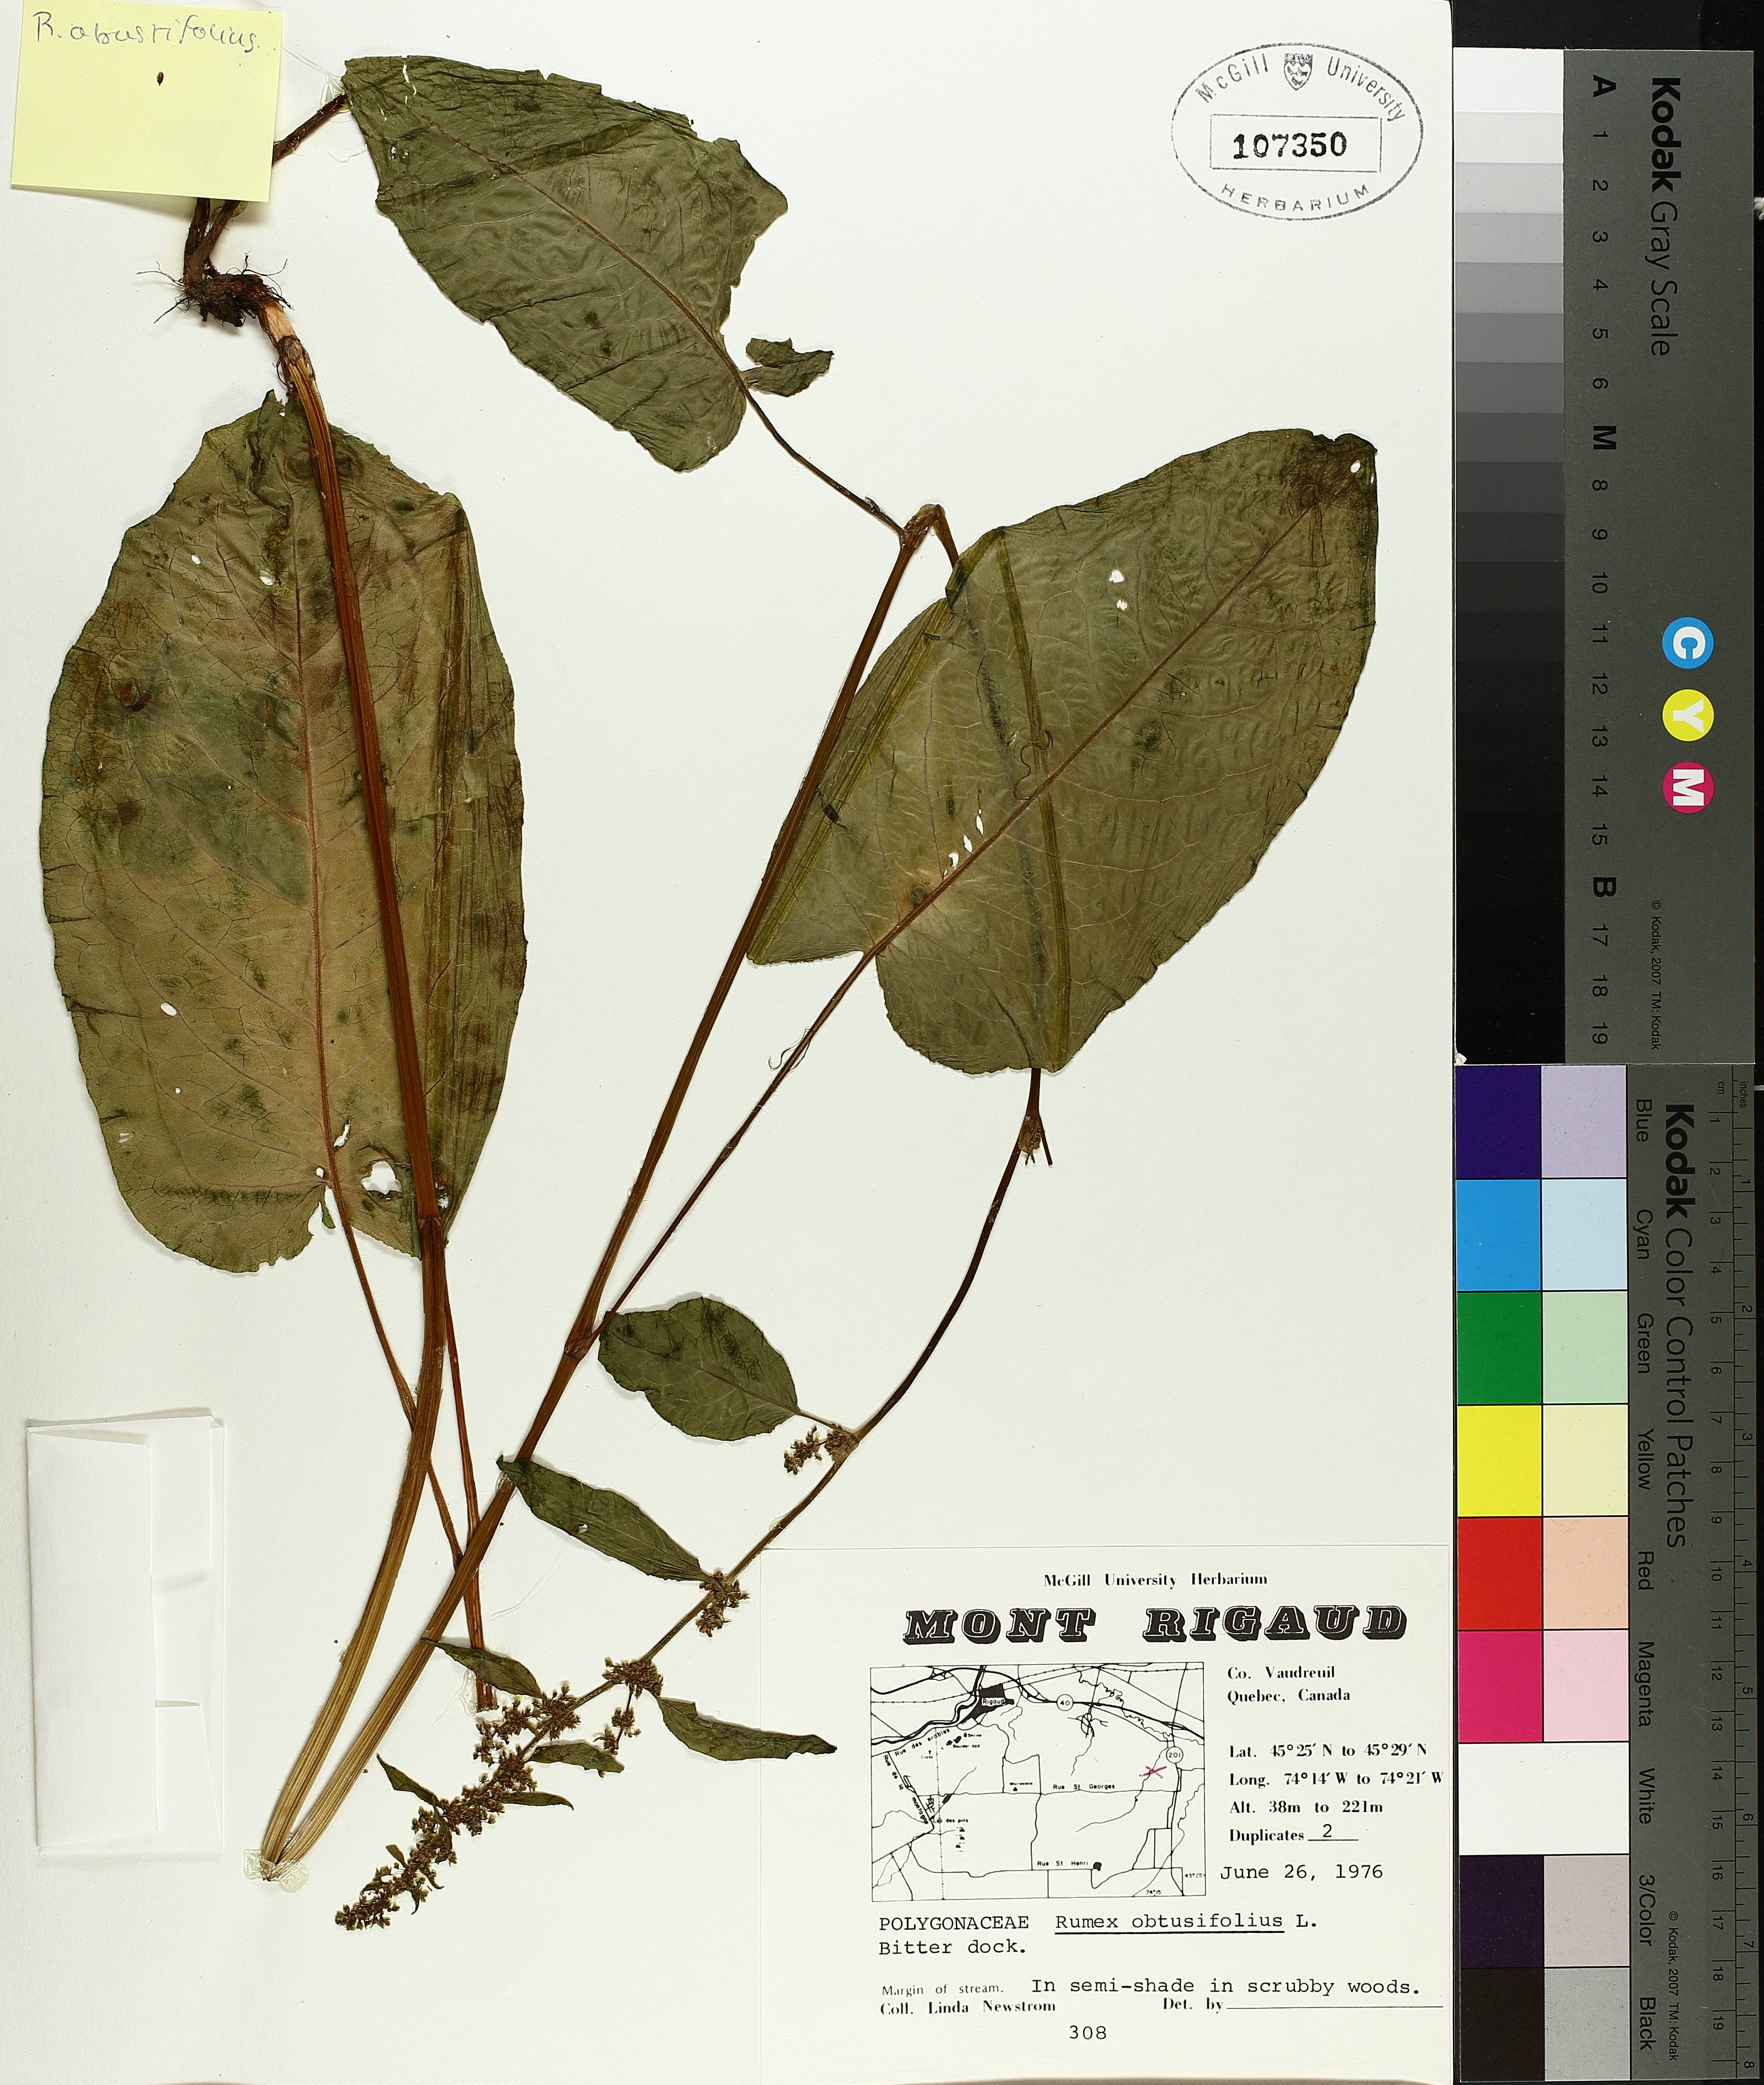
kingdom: Plantae
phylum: Tracheophyta
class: Magnoliopsida
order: Caryophyllales
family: Polygonaceae
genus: Rumex
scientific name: Rumex obtusifolius
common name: Bitter dock
